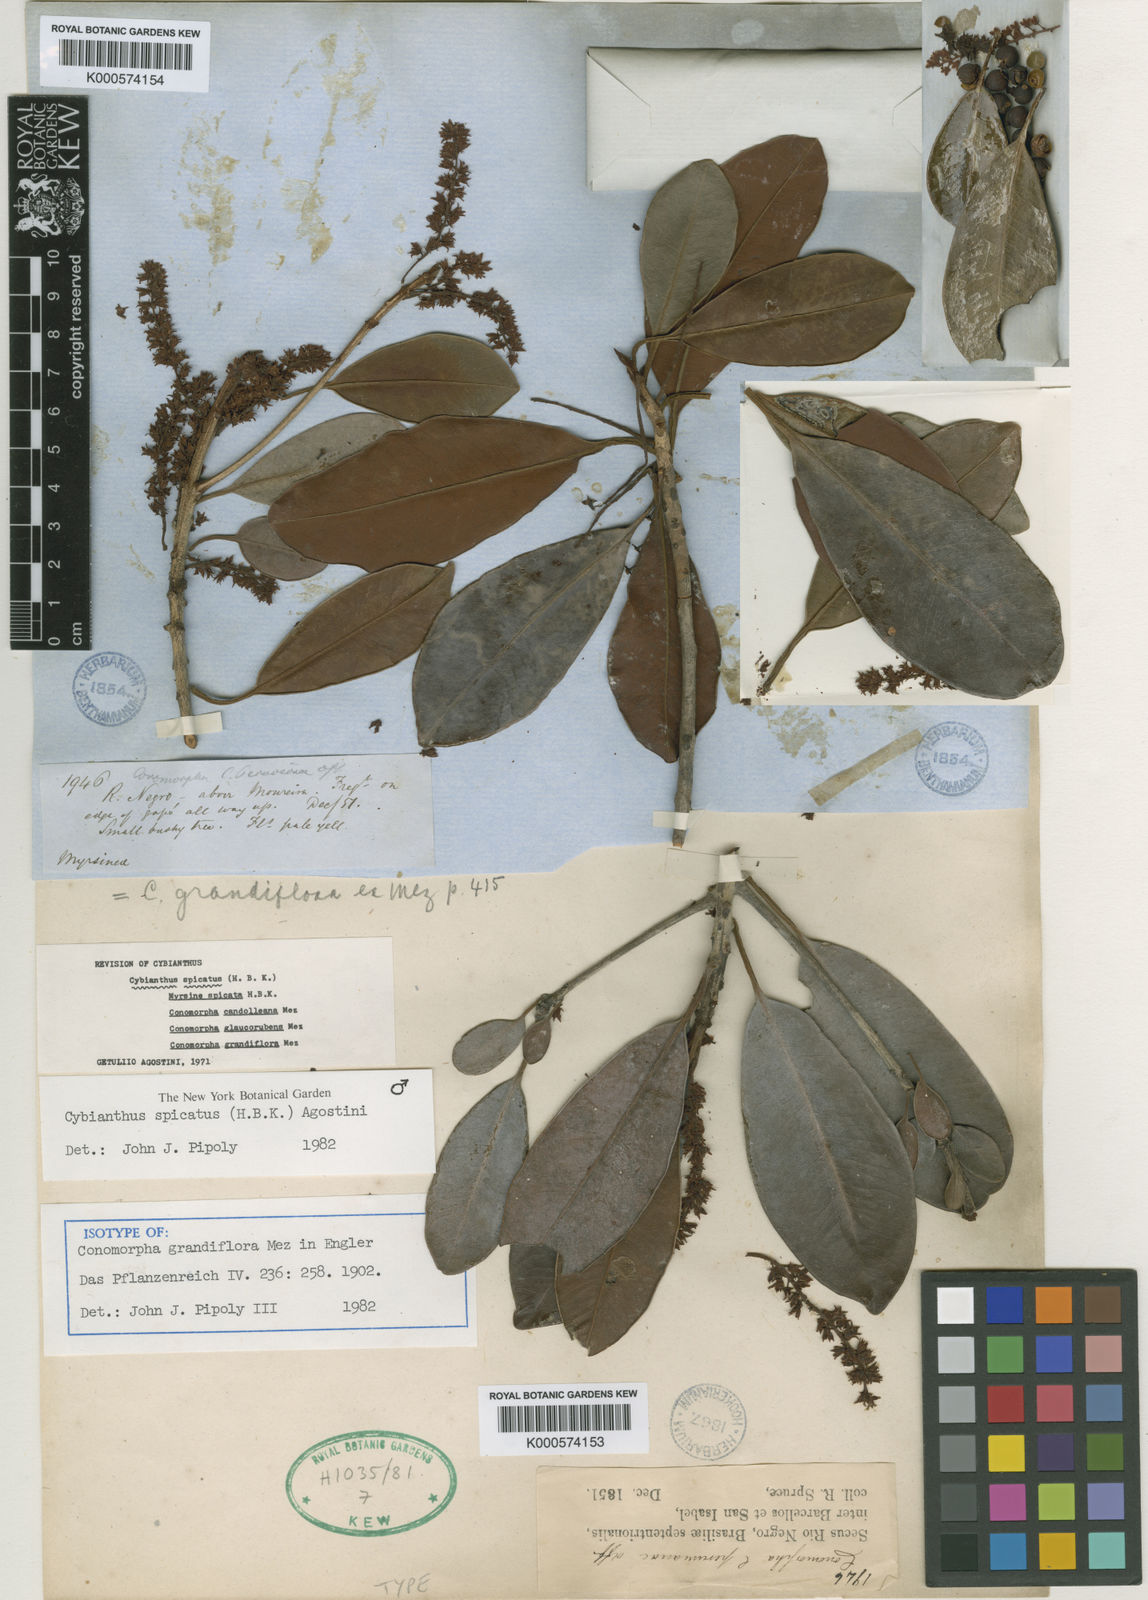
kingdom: Plantae
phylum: Tracheophyta
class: Magnoliopsida
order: Ericales
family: Primulaceae
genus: Cybianthus
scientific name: Cybianthus spicatus
